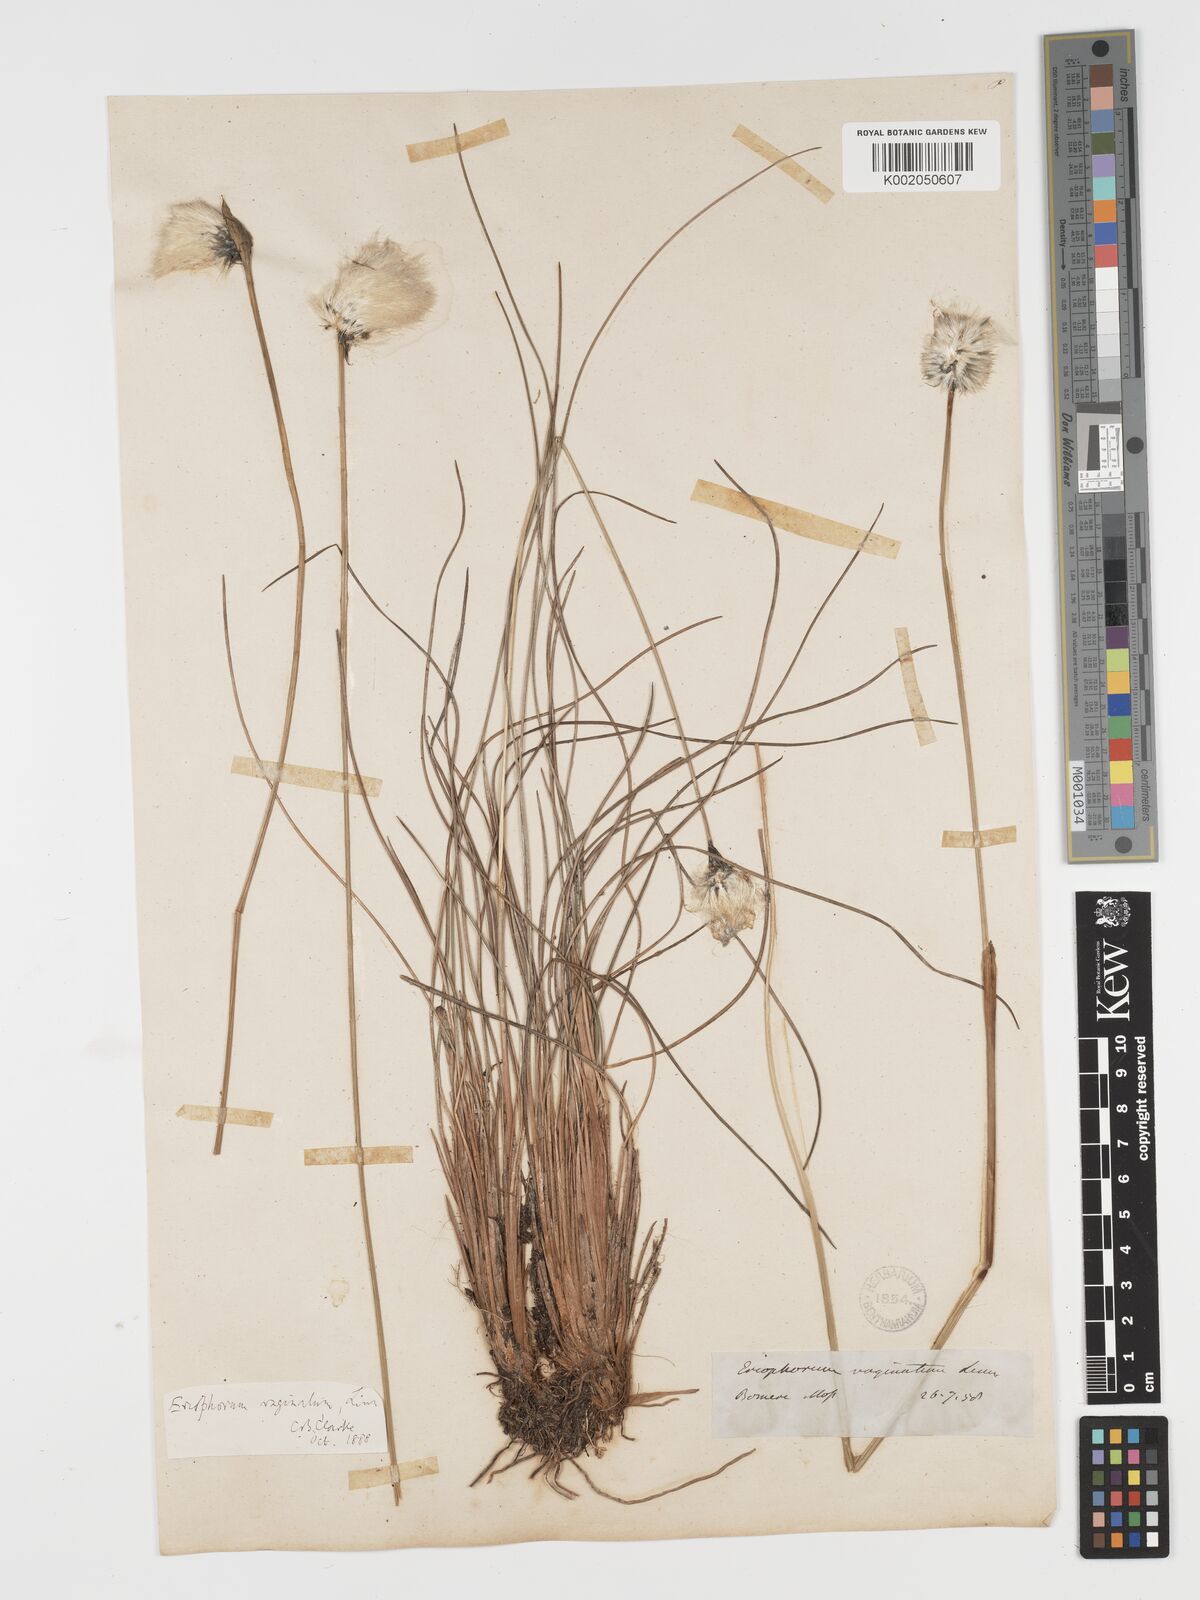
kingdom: Plantae
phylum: Tracheophyta
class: Liliopsida
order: Poales
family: Cyperaceae
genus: Eriophorum
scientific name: Eriophorum vaginatum
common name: Hare's-tail cottongrass
